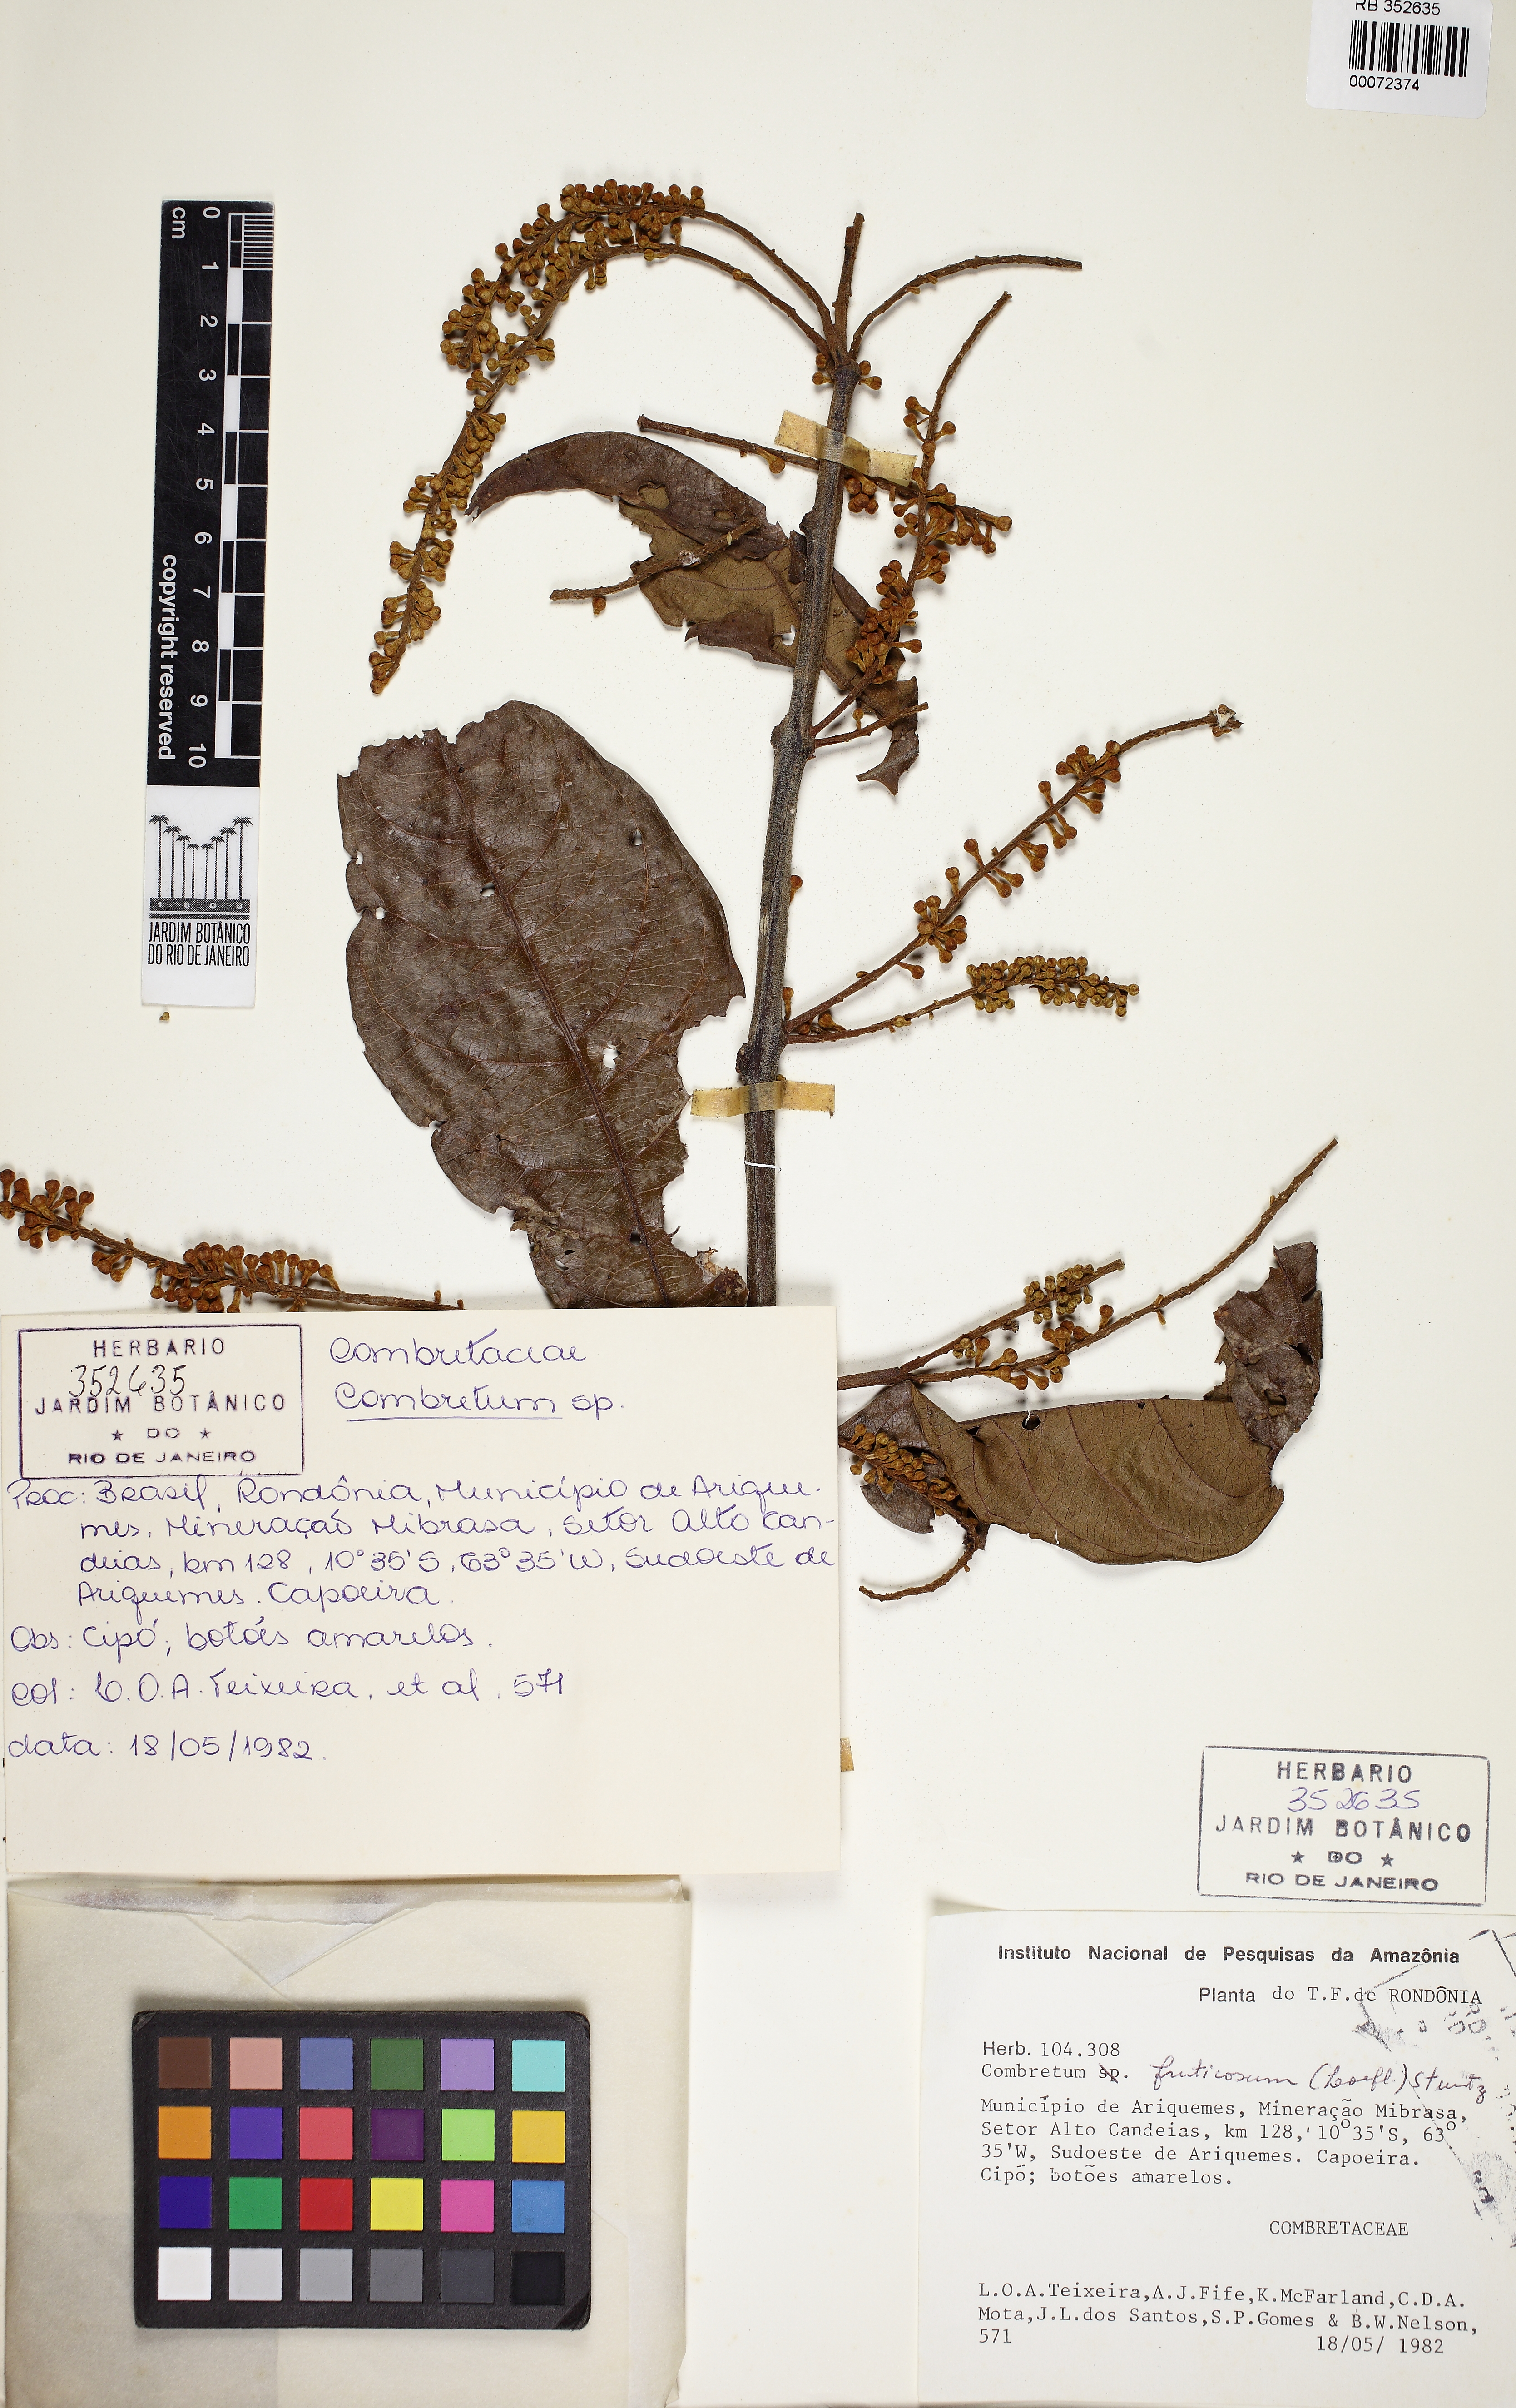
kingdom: Plantae
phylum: Tracheophyta
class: Magnoliopsida
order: Myrtales
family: Combretaceae
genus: Combretum
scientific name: Combretum fruticosum
